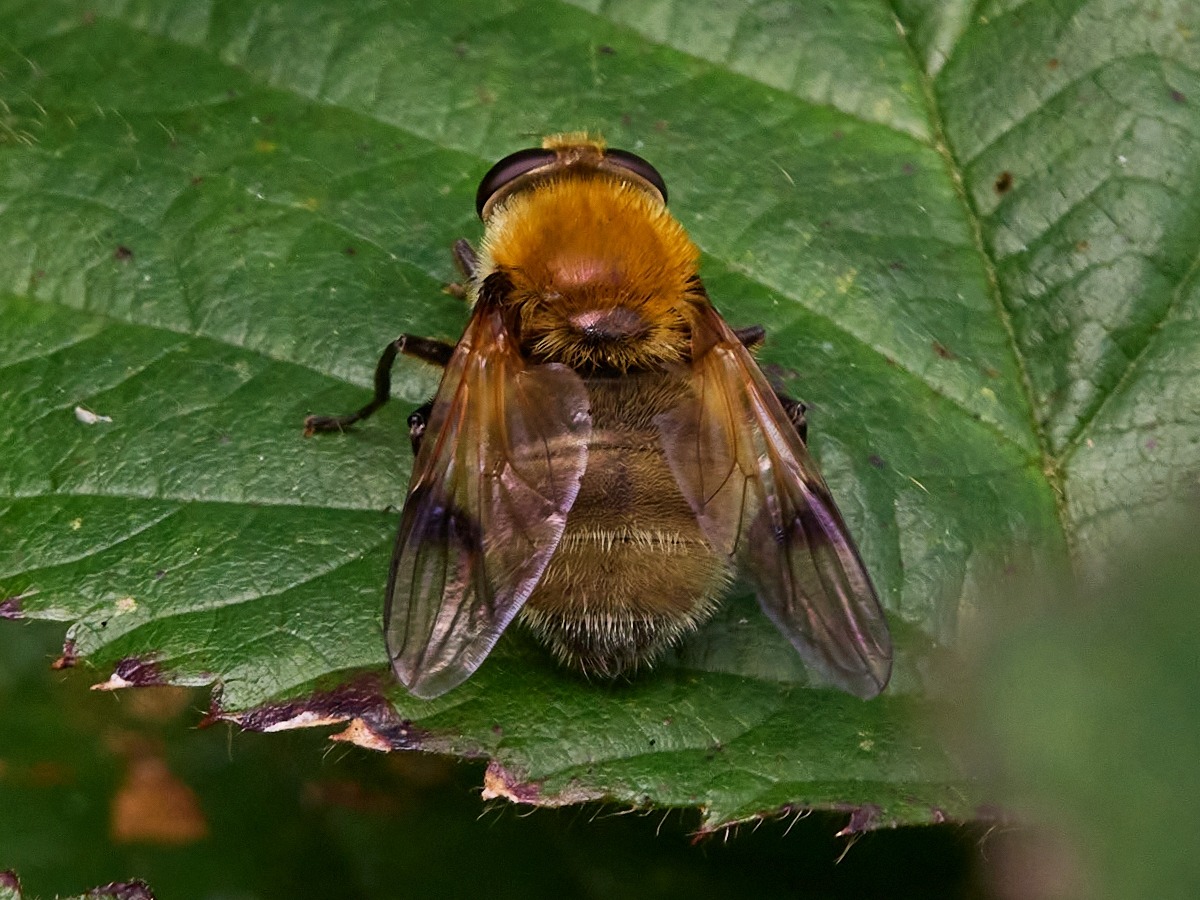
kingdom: Animalia
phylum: Arthropoda
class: Insecta
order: Diptera
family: Syrphidae
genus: Sericomyia
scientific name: Sericomyia superbiens
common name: Brun bjørnesvirreflue
